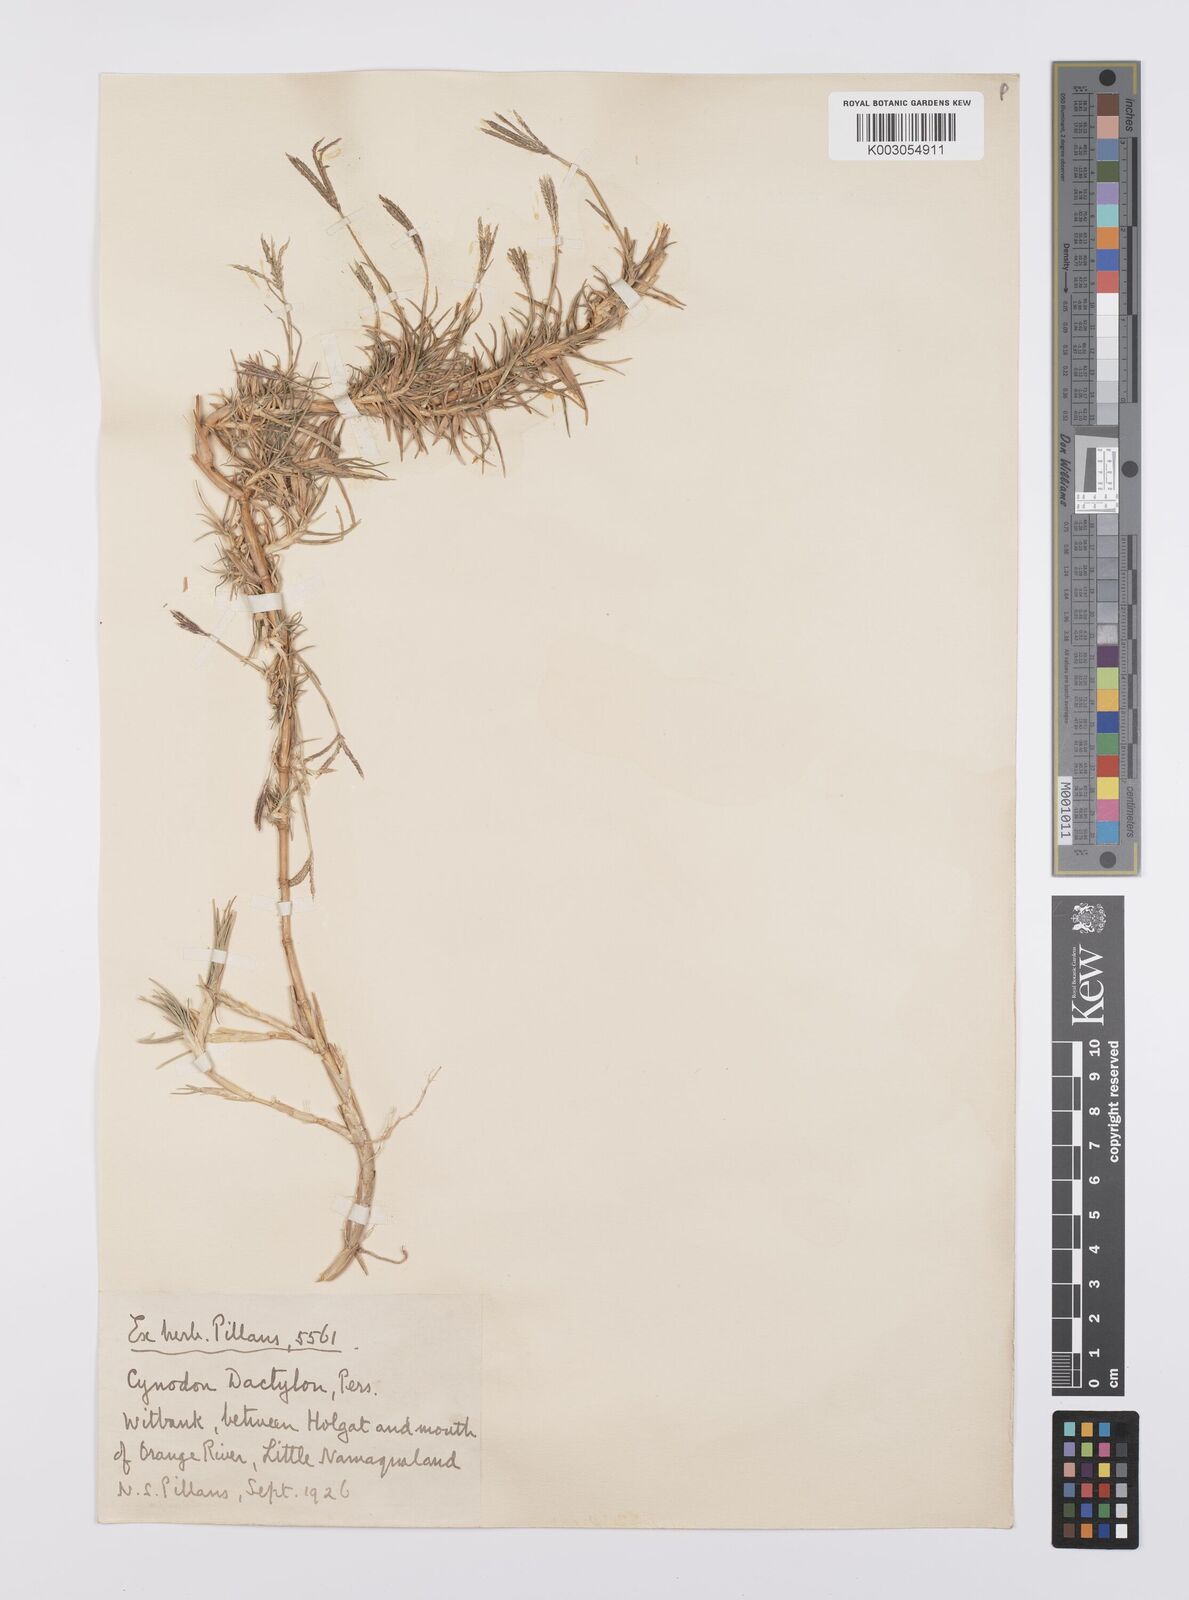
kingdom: Plantae
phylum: Tracheophyta
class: Liliopsida
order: Poales
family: Poaceae
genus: Cynodon
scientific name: Cynodon dactylon
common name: Bermuda grass
